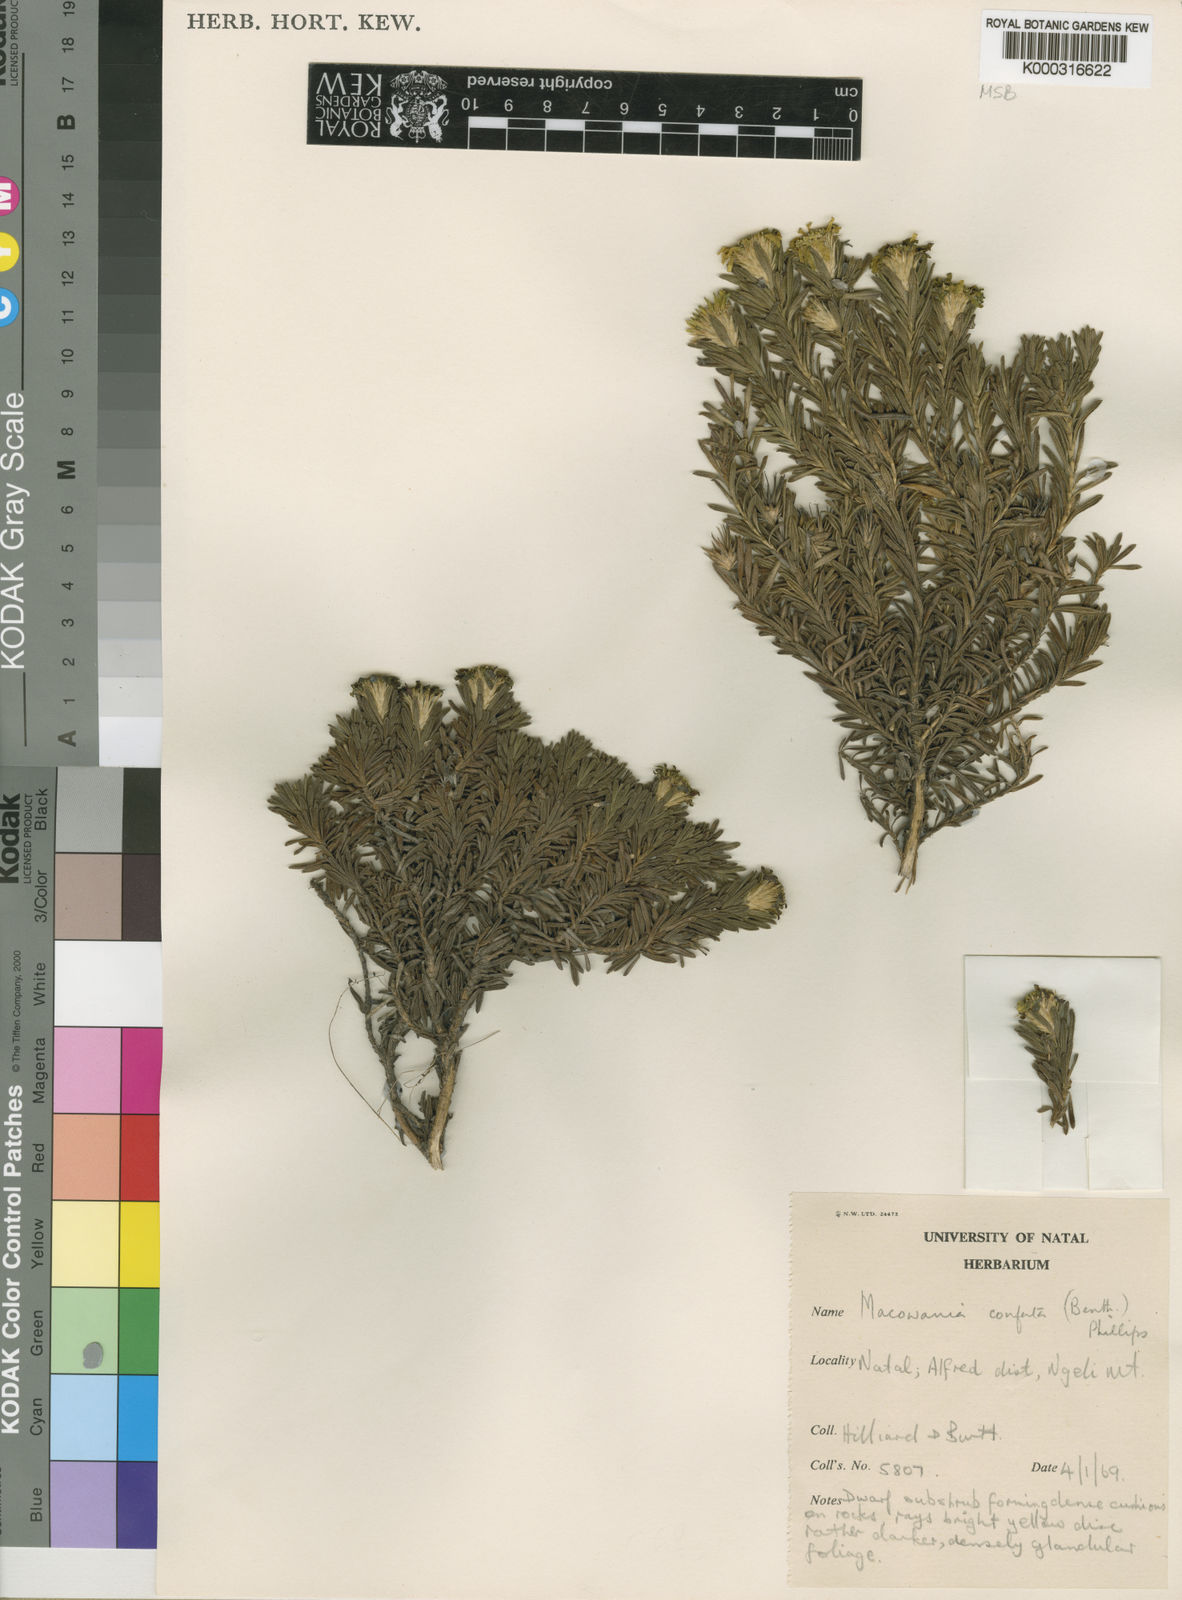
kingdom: Plantae
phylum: Tracheophyta
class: Magnoliopsida
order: Asterales
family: Asteraceae
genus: Arrowsmithia
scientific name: Arrowsmithia conferta
